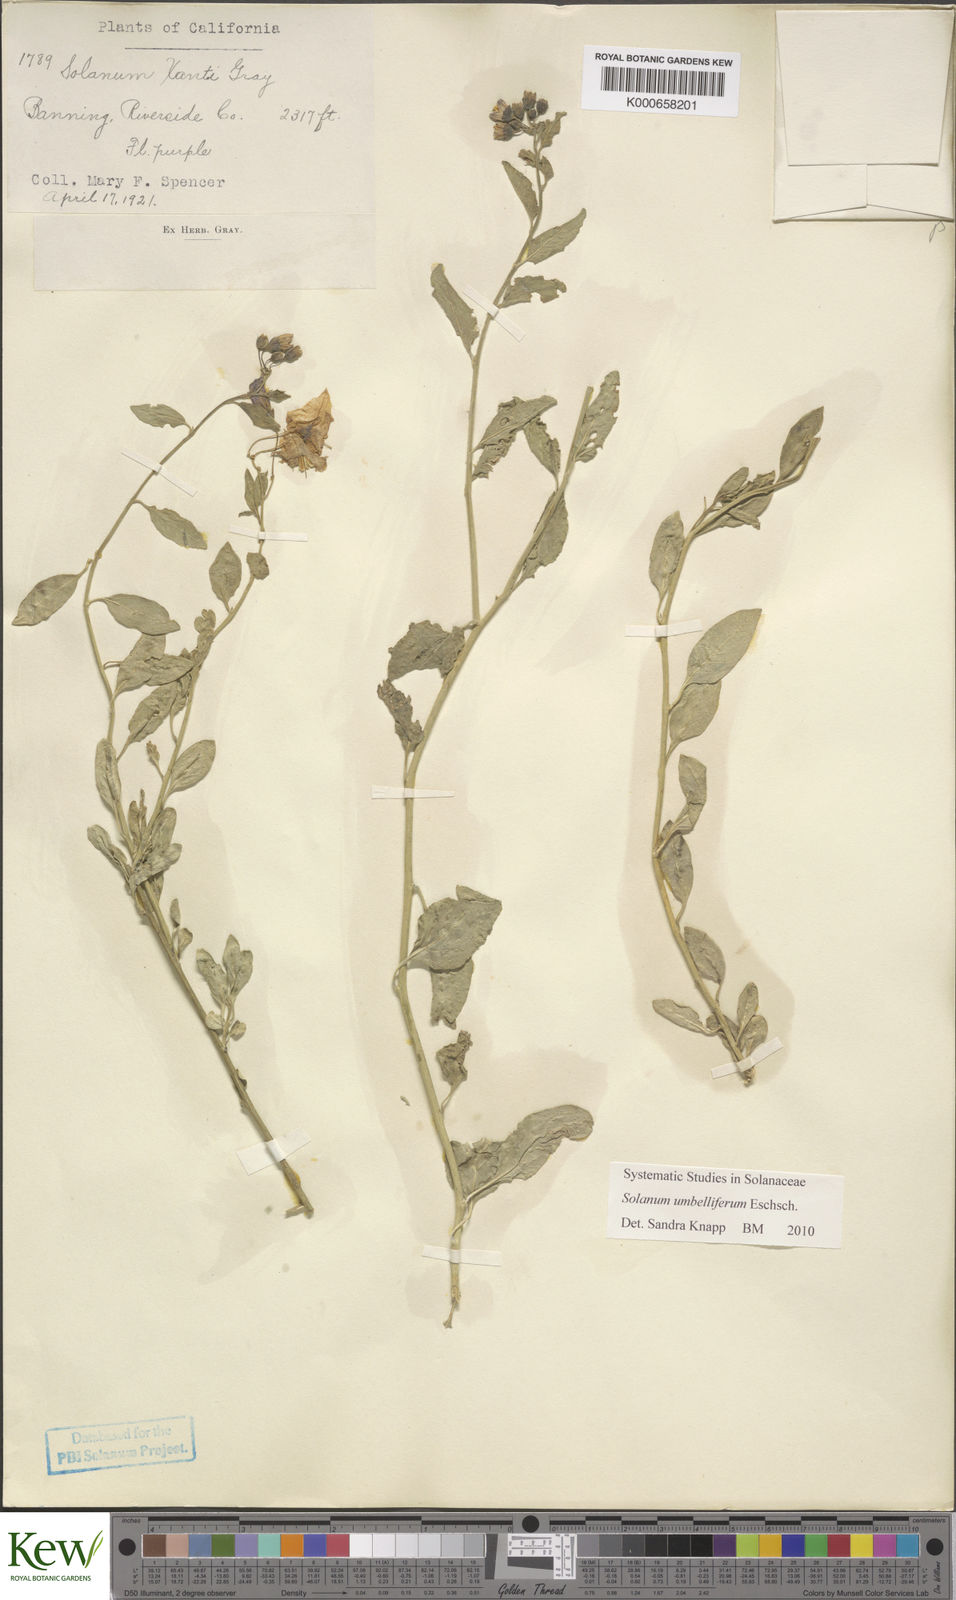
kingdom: Plantae
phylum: Tracheophyta
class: Magnoliopsida
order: Solanales
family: Solanaceae
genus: Solanum
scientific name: Solanum umbelliferum
